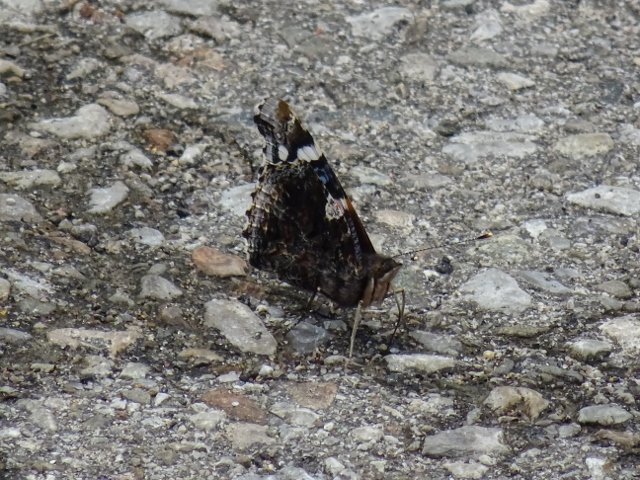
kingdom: Animalia
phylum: Arthropoda
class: Insecta
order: Lepidoptera
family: Nymphalidae
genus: Vanessa
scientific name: Vanessa atalanta
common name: Red Admiral
